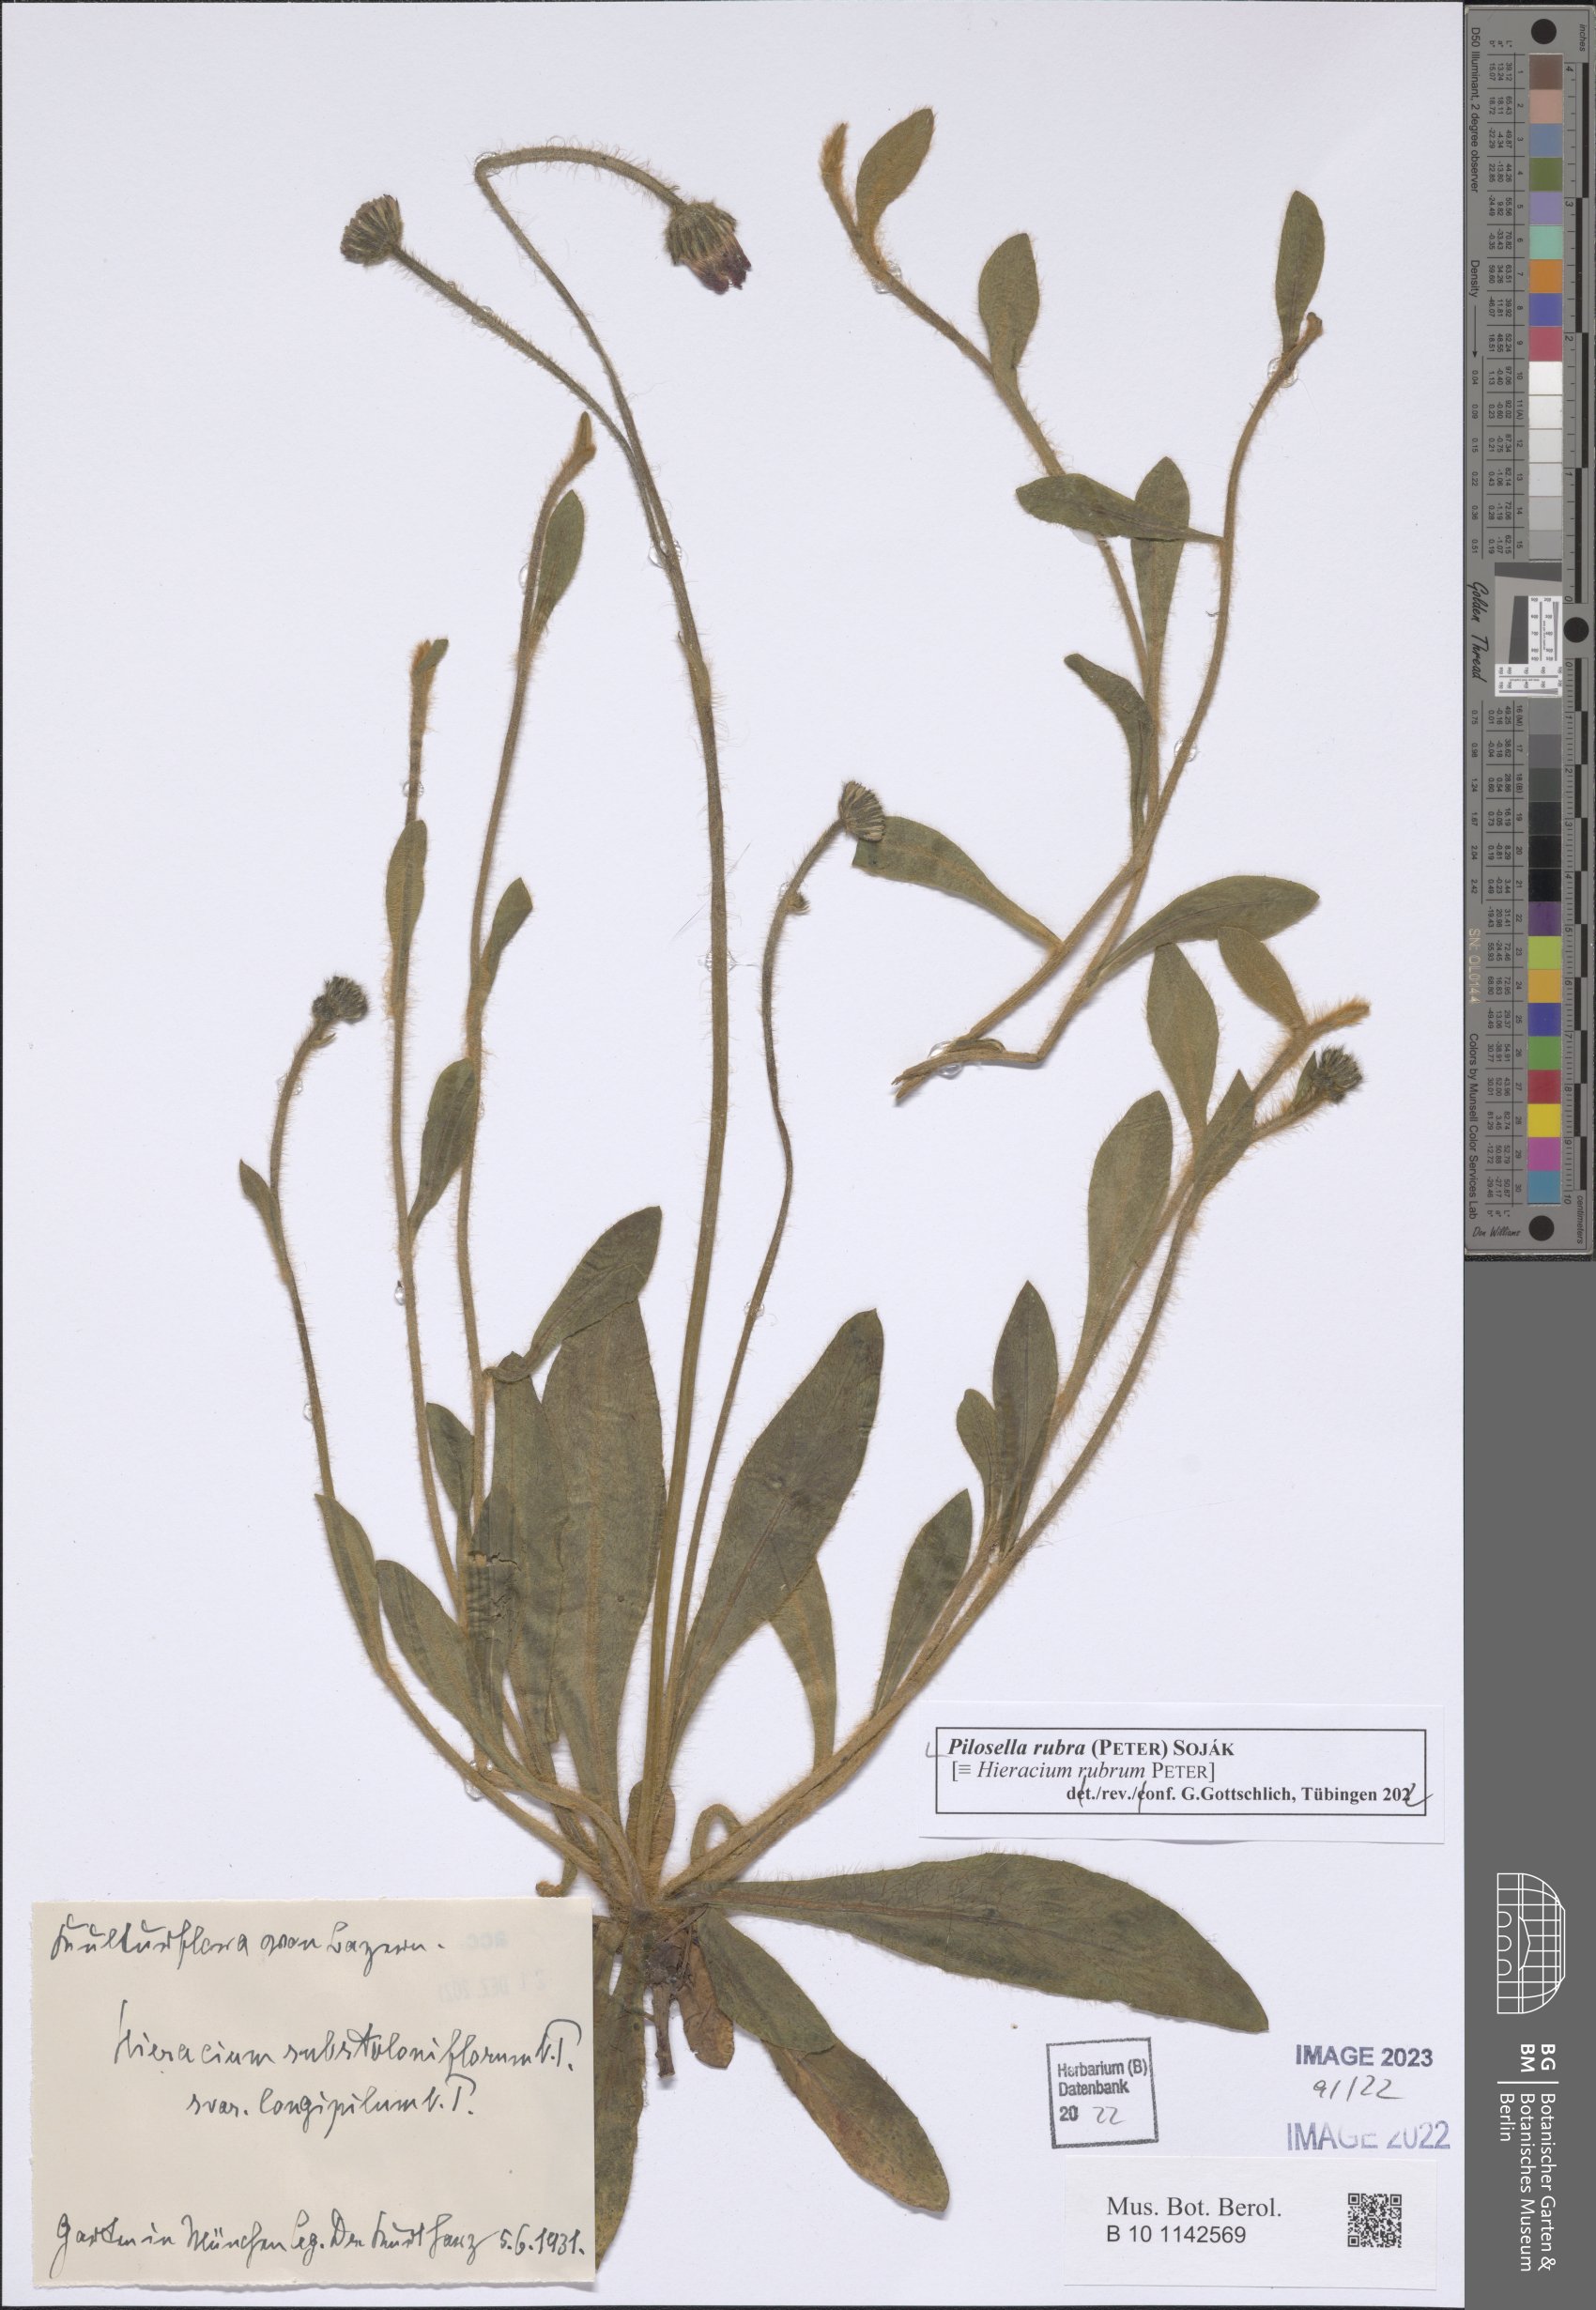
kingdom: Plantae
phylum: Tracheophyta
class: Magnoliopsida
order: Asterales
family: Asteraceae
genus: Pilosella
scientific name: Pilosella rubra
